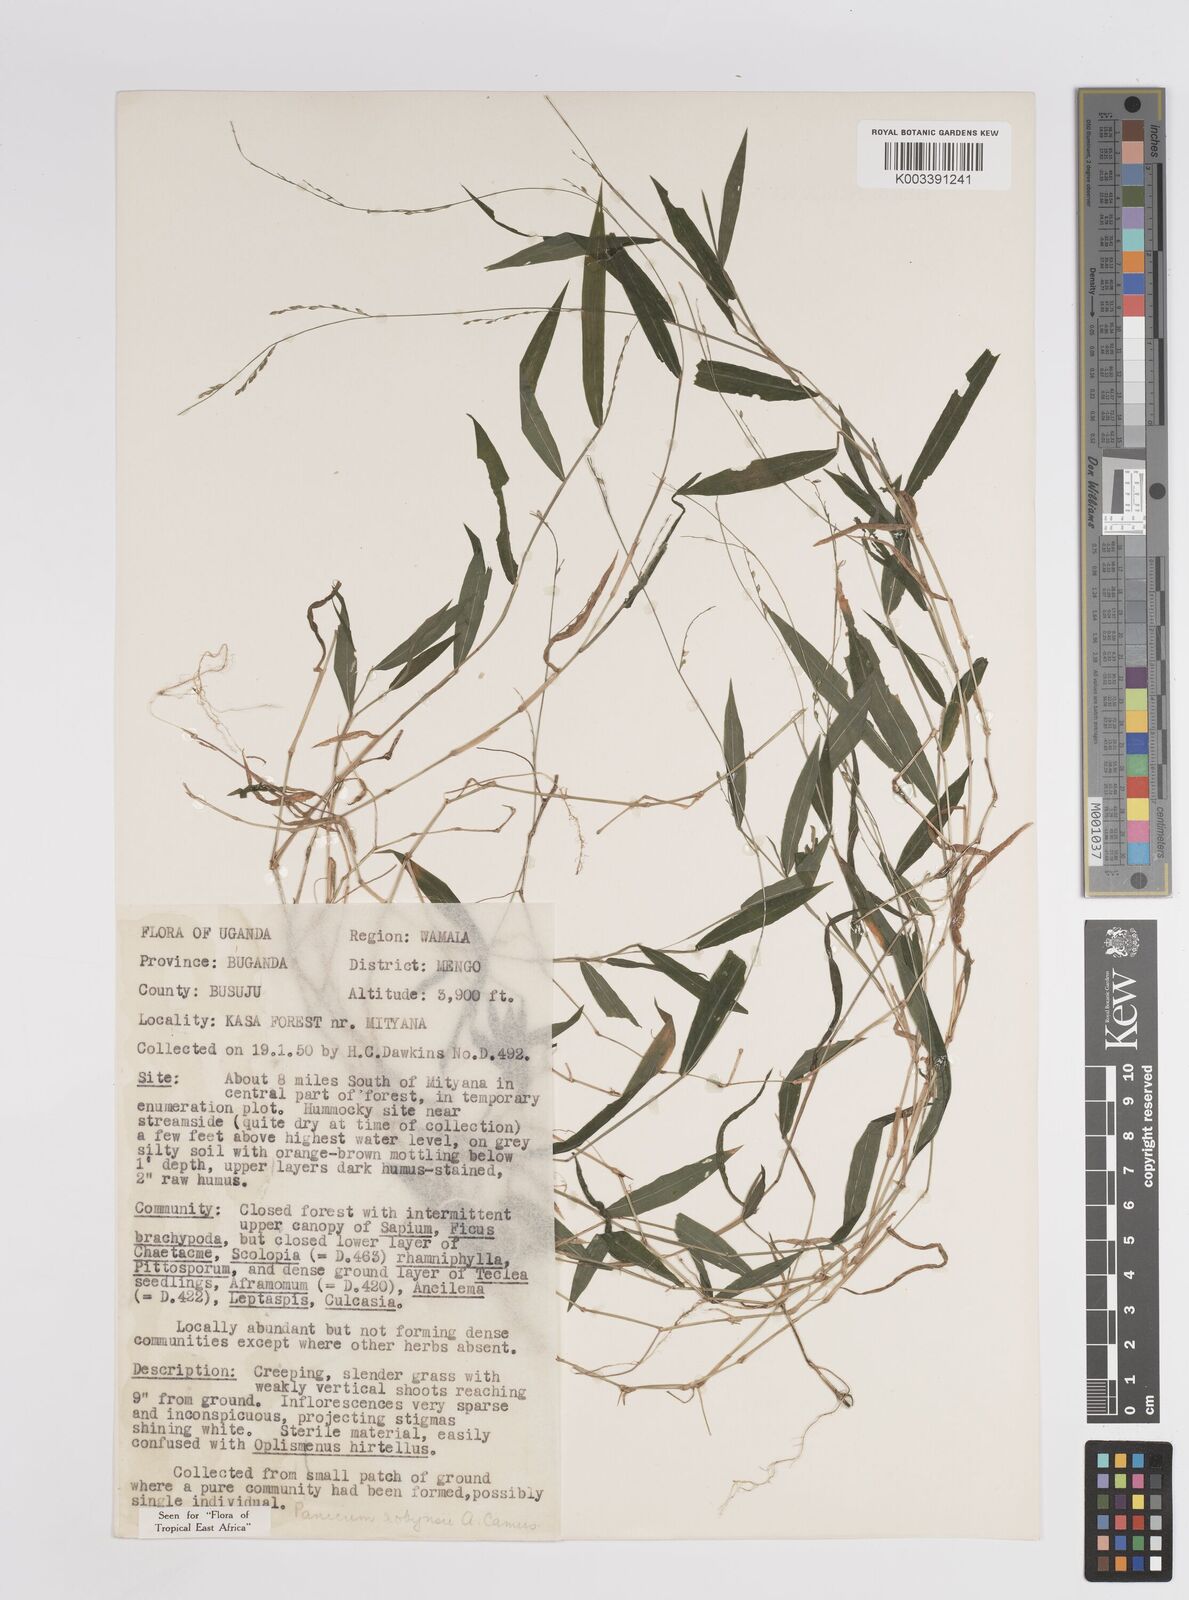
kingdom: Plantae
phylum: Tracheophyta
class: Liliopsida
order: Poales
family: Poaceae
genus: Panicum
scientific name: Panicum robynsii
